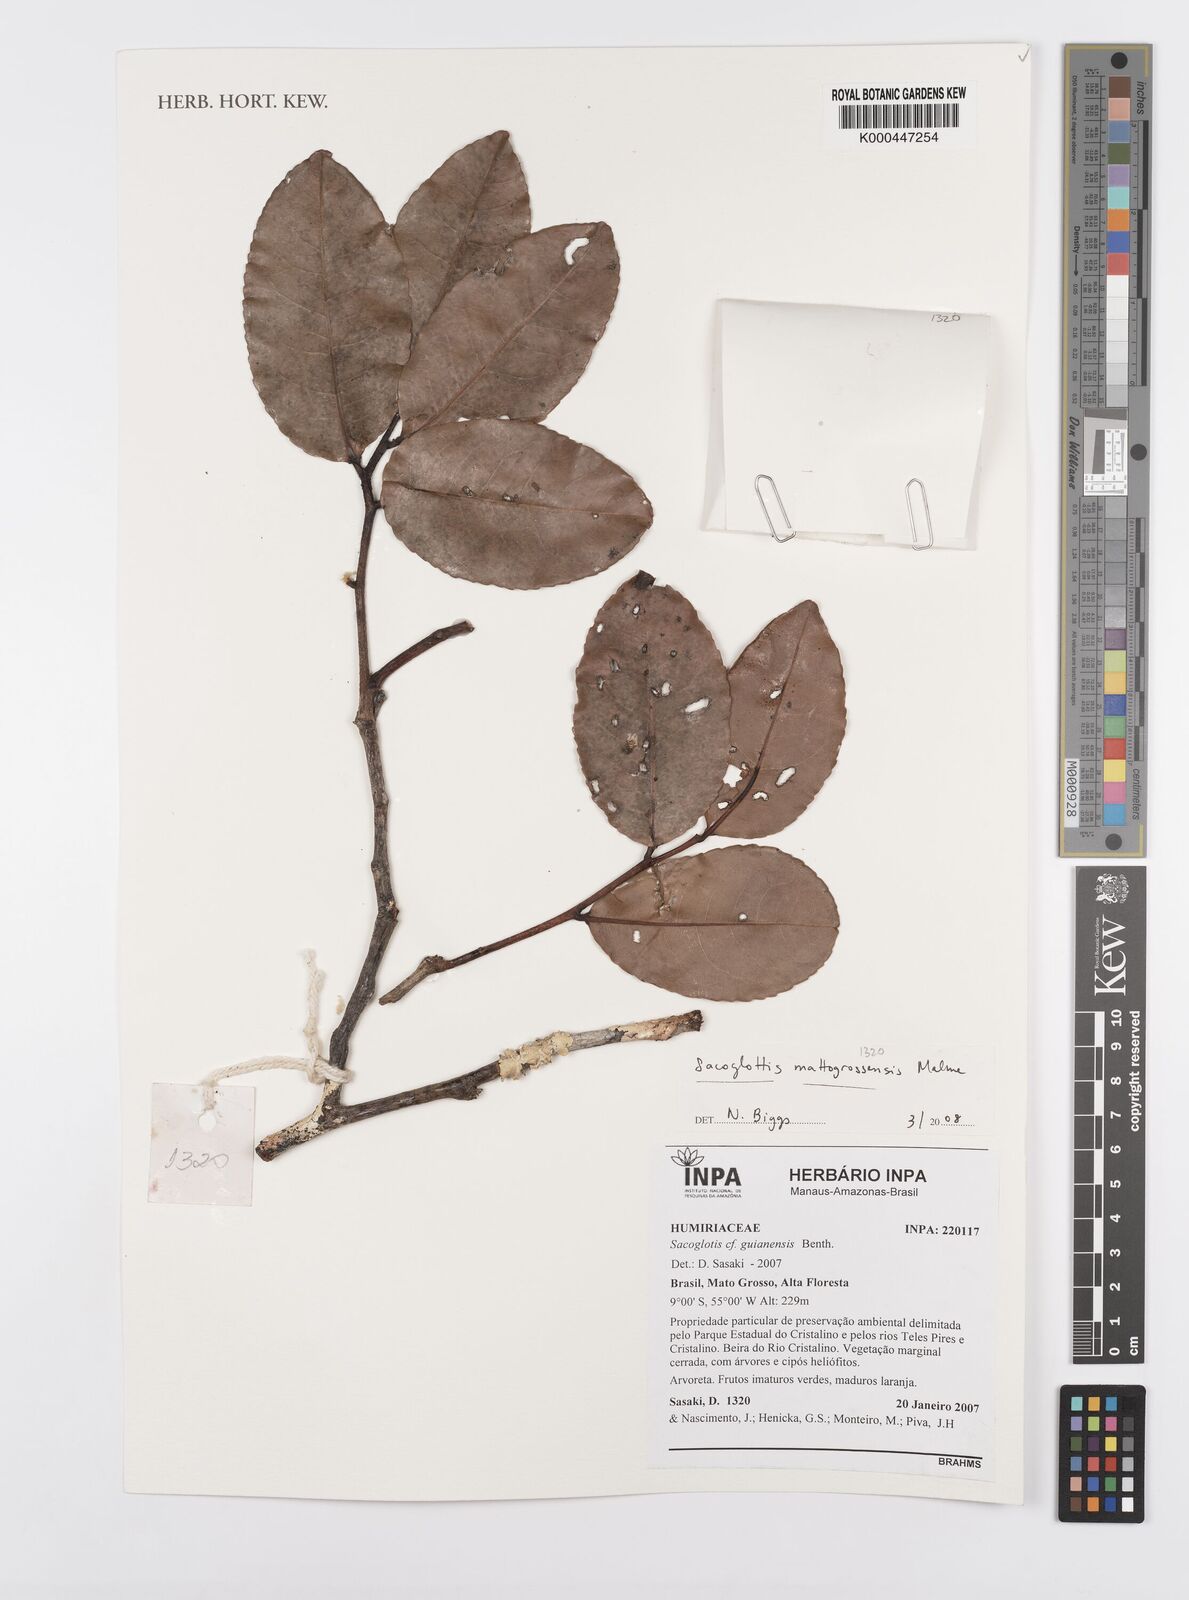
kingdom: Plantae
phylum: Tracheophyta
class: Magnoliopsida
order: Malpighiales
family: Humiriaceae
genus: Sacoglottis
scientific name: Sacoglottis
